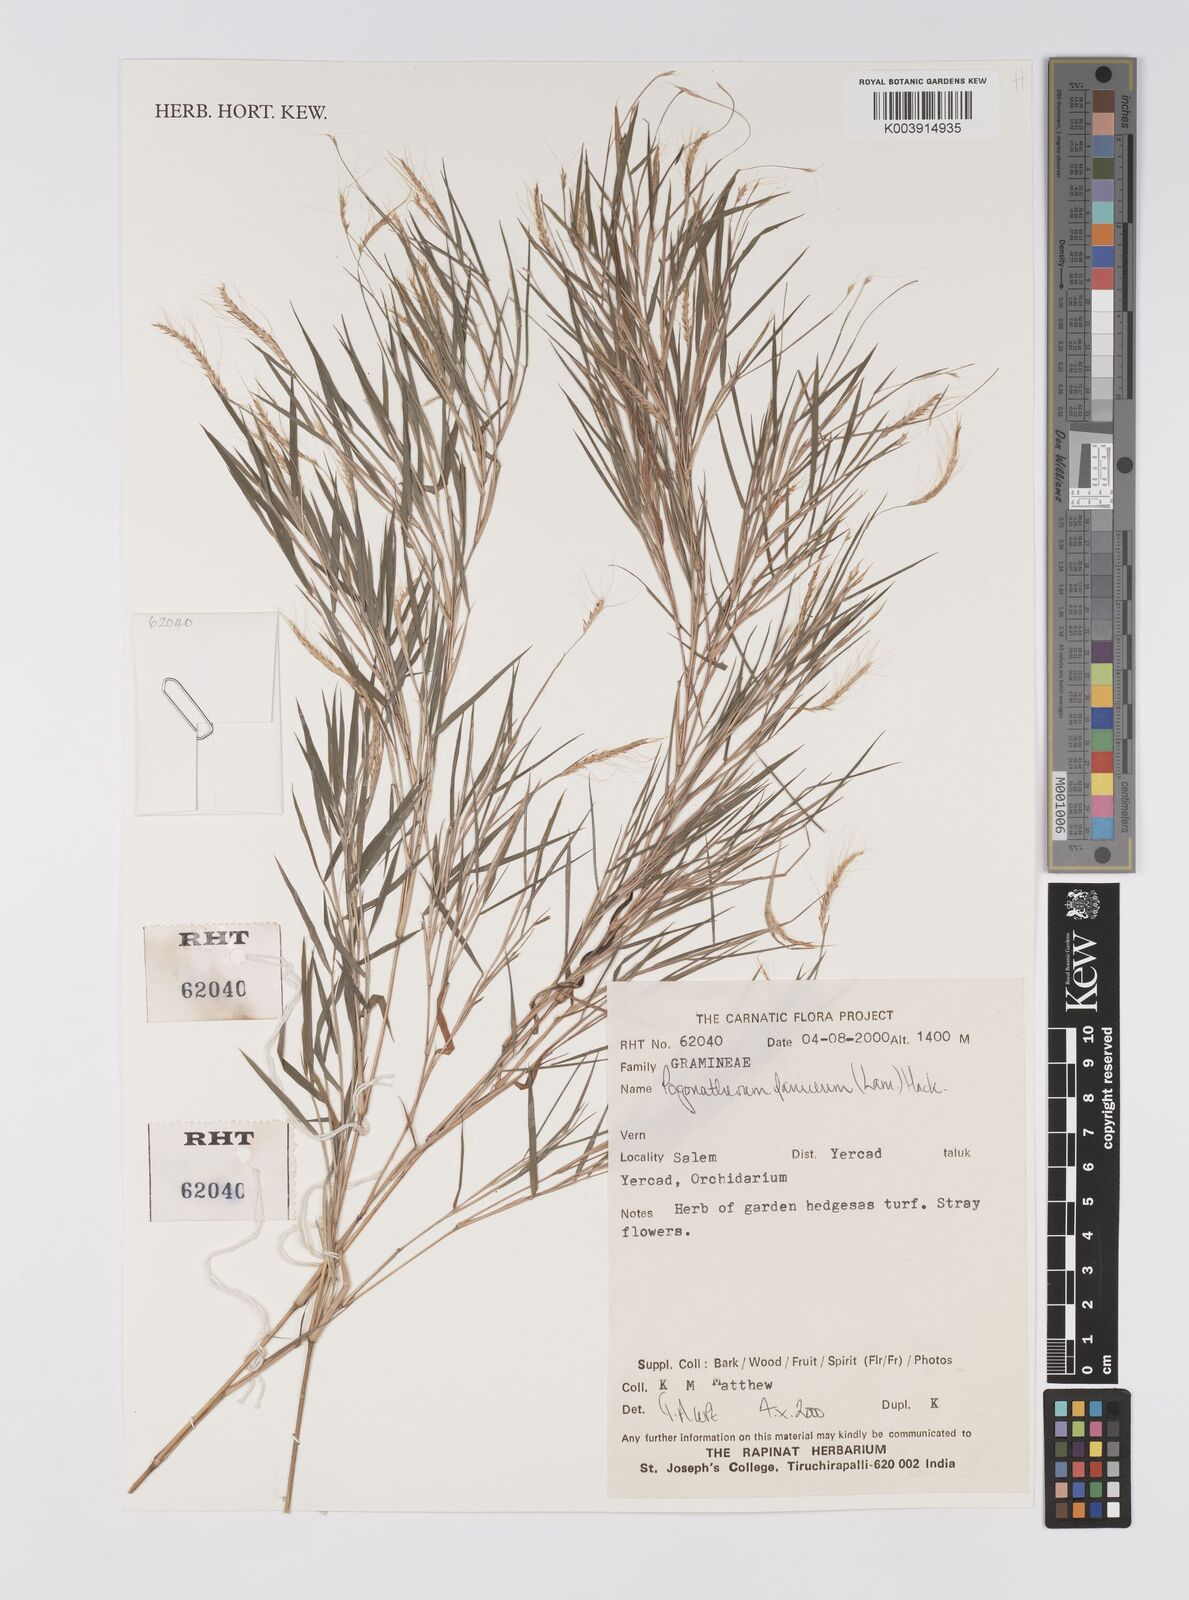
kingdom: Plantae
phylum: Tracheophyta
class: Liliopsida
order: Poales
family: Poaceae
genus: Pogonatherum
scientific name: Pogonatherum paniceum
